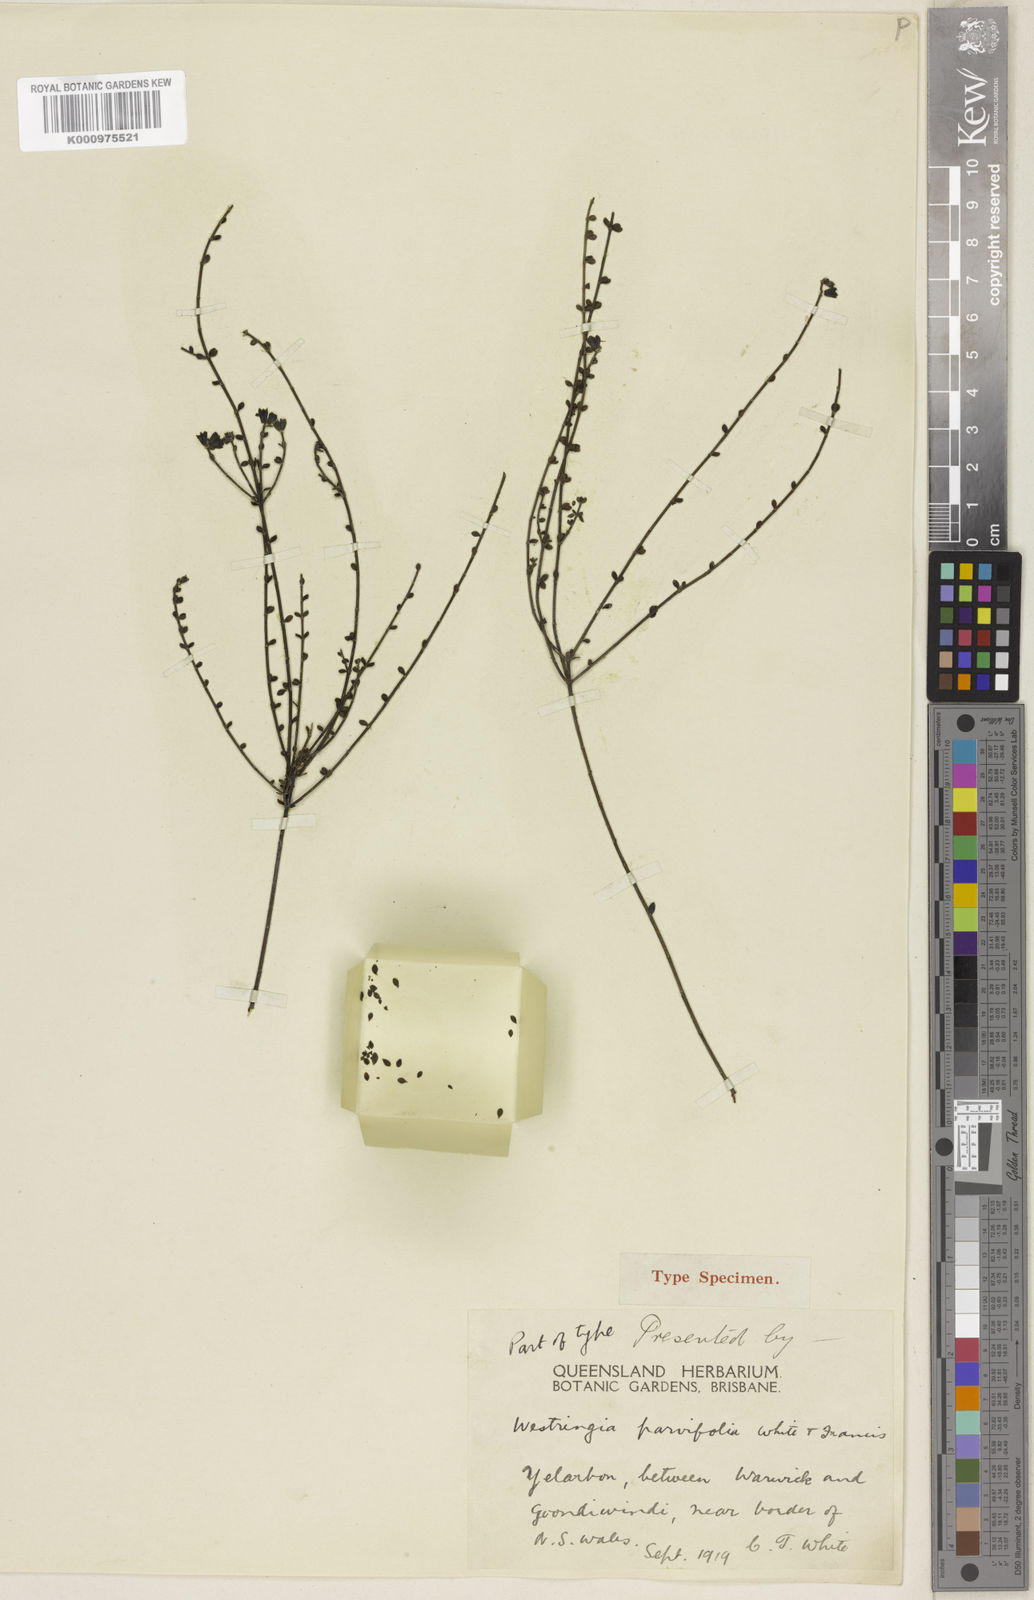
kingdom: Plantae
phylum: Tracheophyta
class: Magnoliopsida
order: Lamiales
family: Lamiaceae
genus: Westringia
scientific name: Westringia parvifolia
